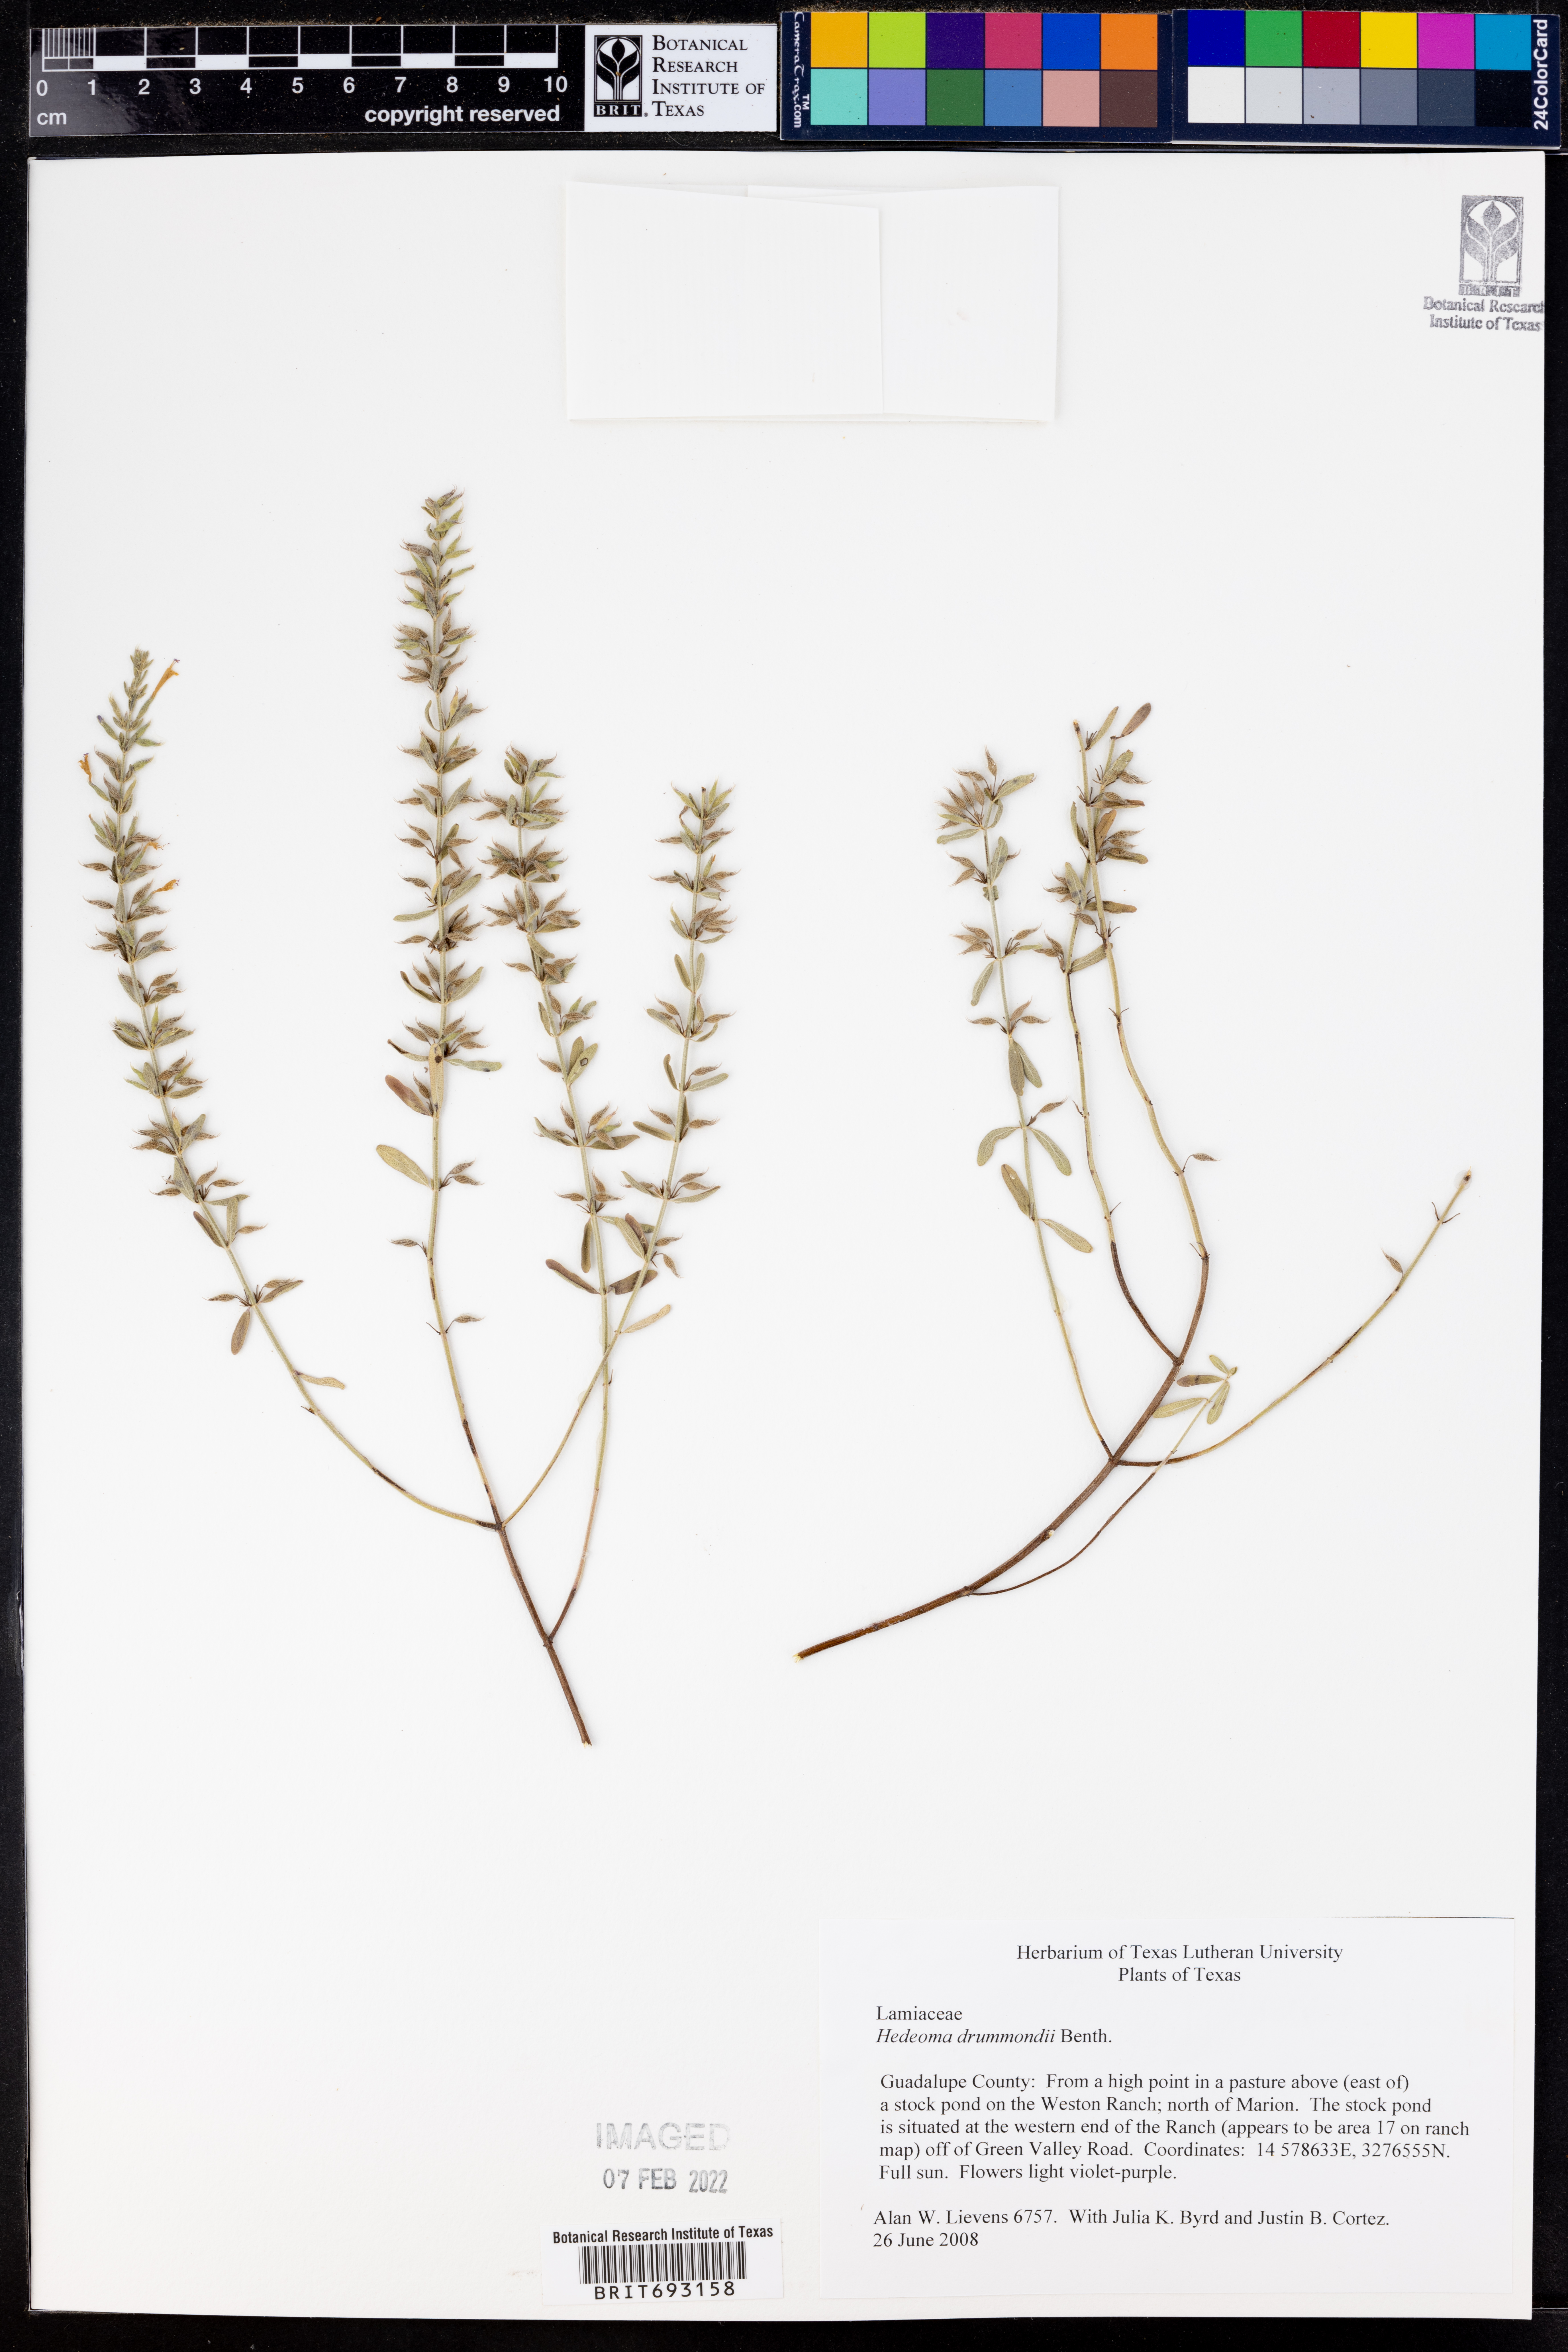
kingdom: Plantae
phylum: Tracheophyta
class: Magnoliopsida
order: Lamiales
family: Lamiaceae
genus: Hedeoma
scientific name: Hedeoma drummondii
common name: New mexico pennyroyal
